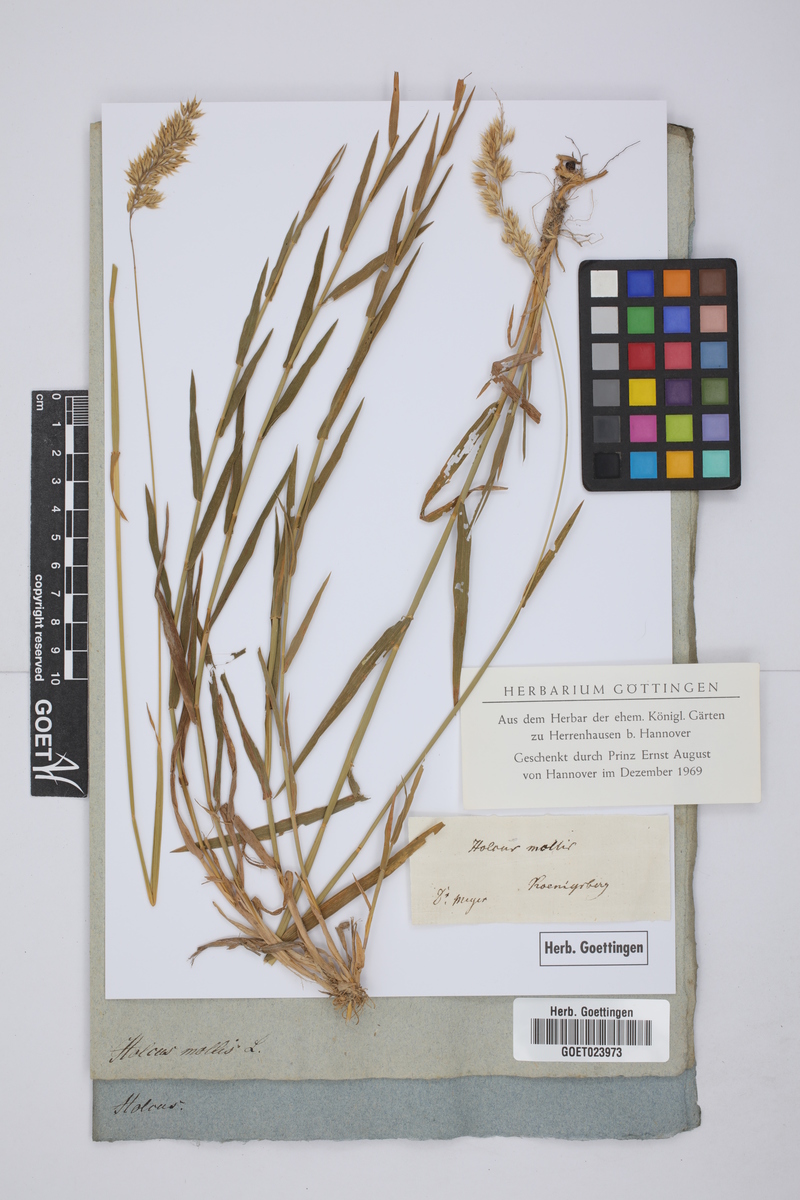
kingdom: Plantae
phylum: Tracheophyta
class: Liliopsida
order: Poales
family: Poaceae
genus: Holcus
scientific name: Holcus mollis
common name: Creeping velvetgrass
